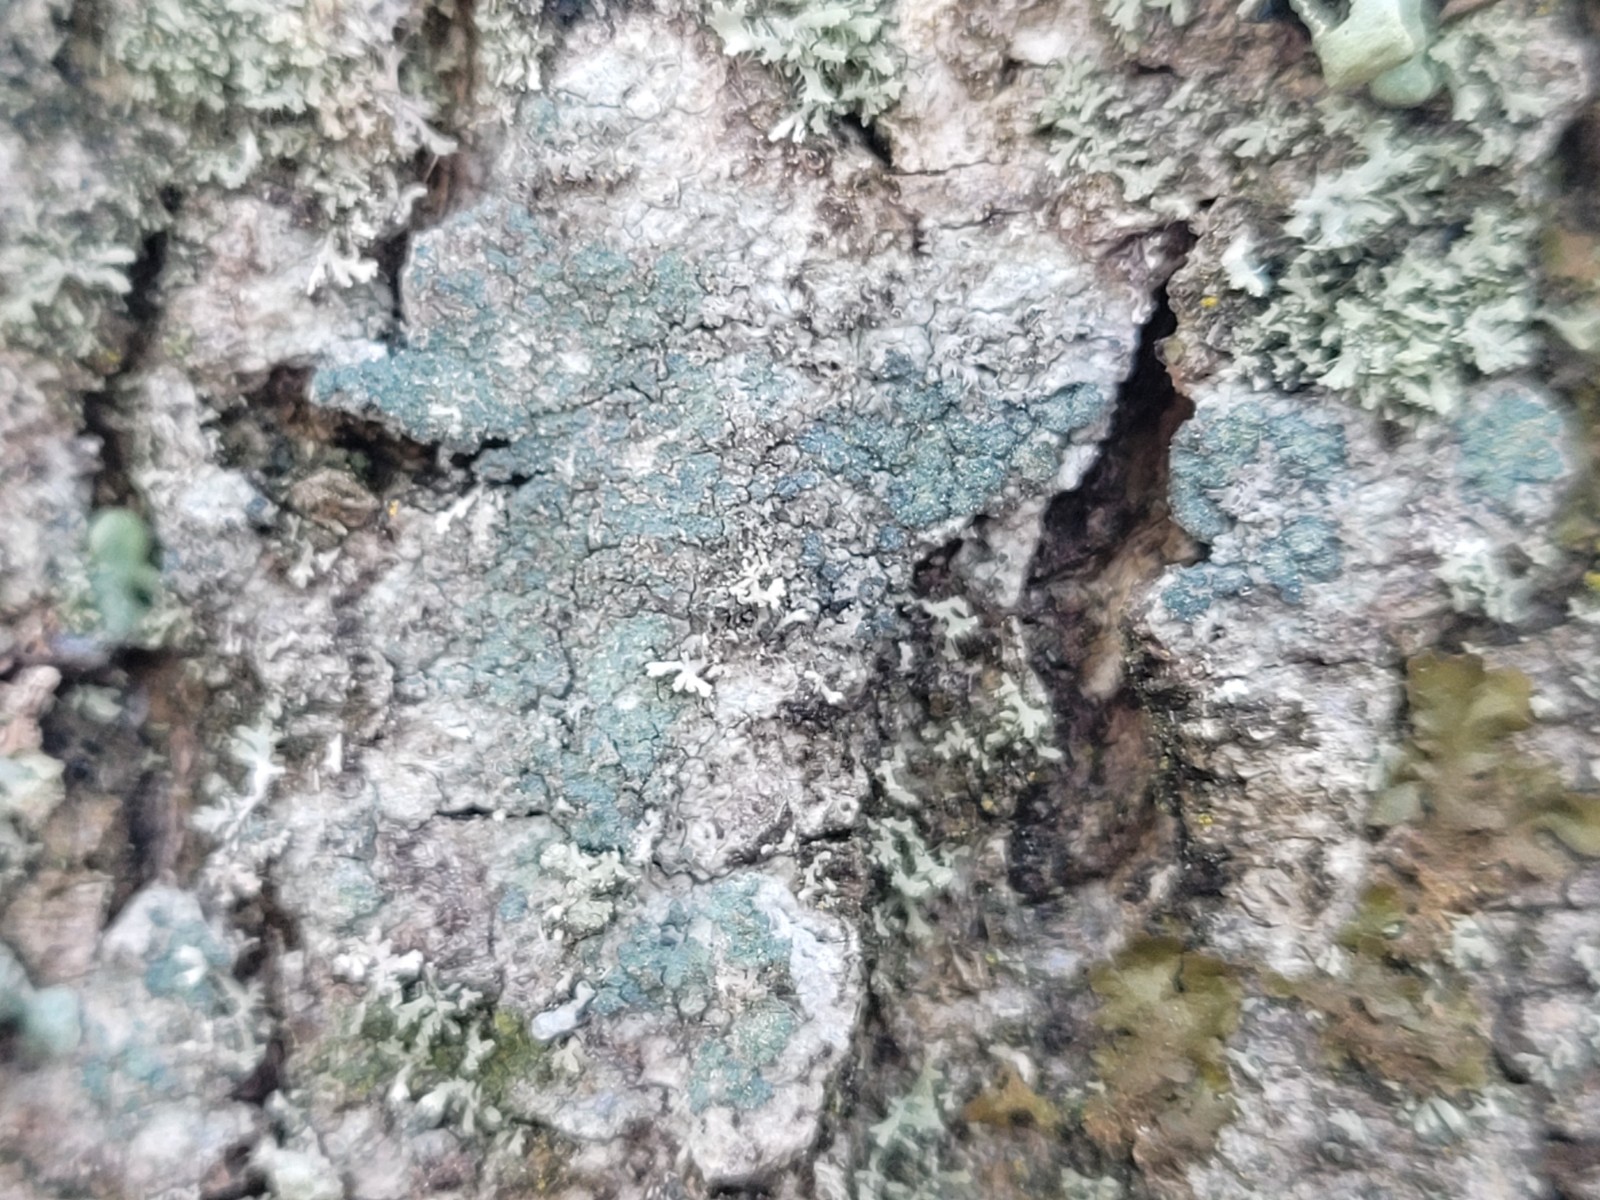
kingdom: Fungi
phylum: Ascomycota
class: Lecanoromycetes
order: Caliciales
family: Caliciaceae
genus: Buellia
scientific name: Buellia griseovirens
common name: grågrøn sortskivelav
